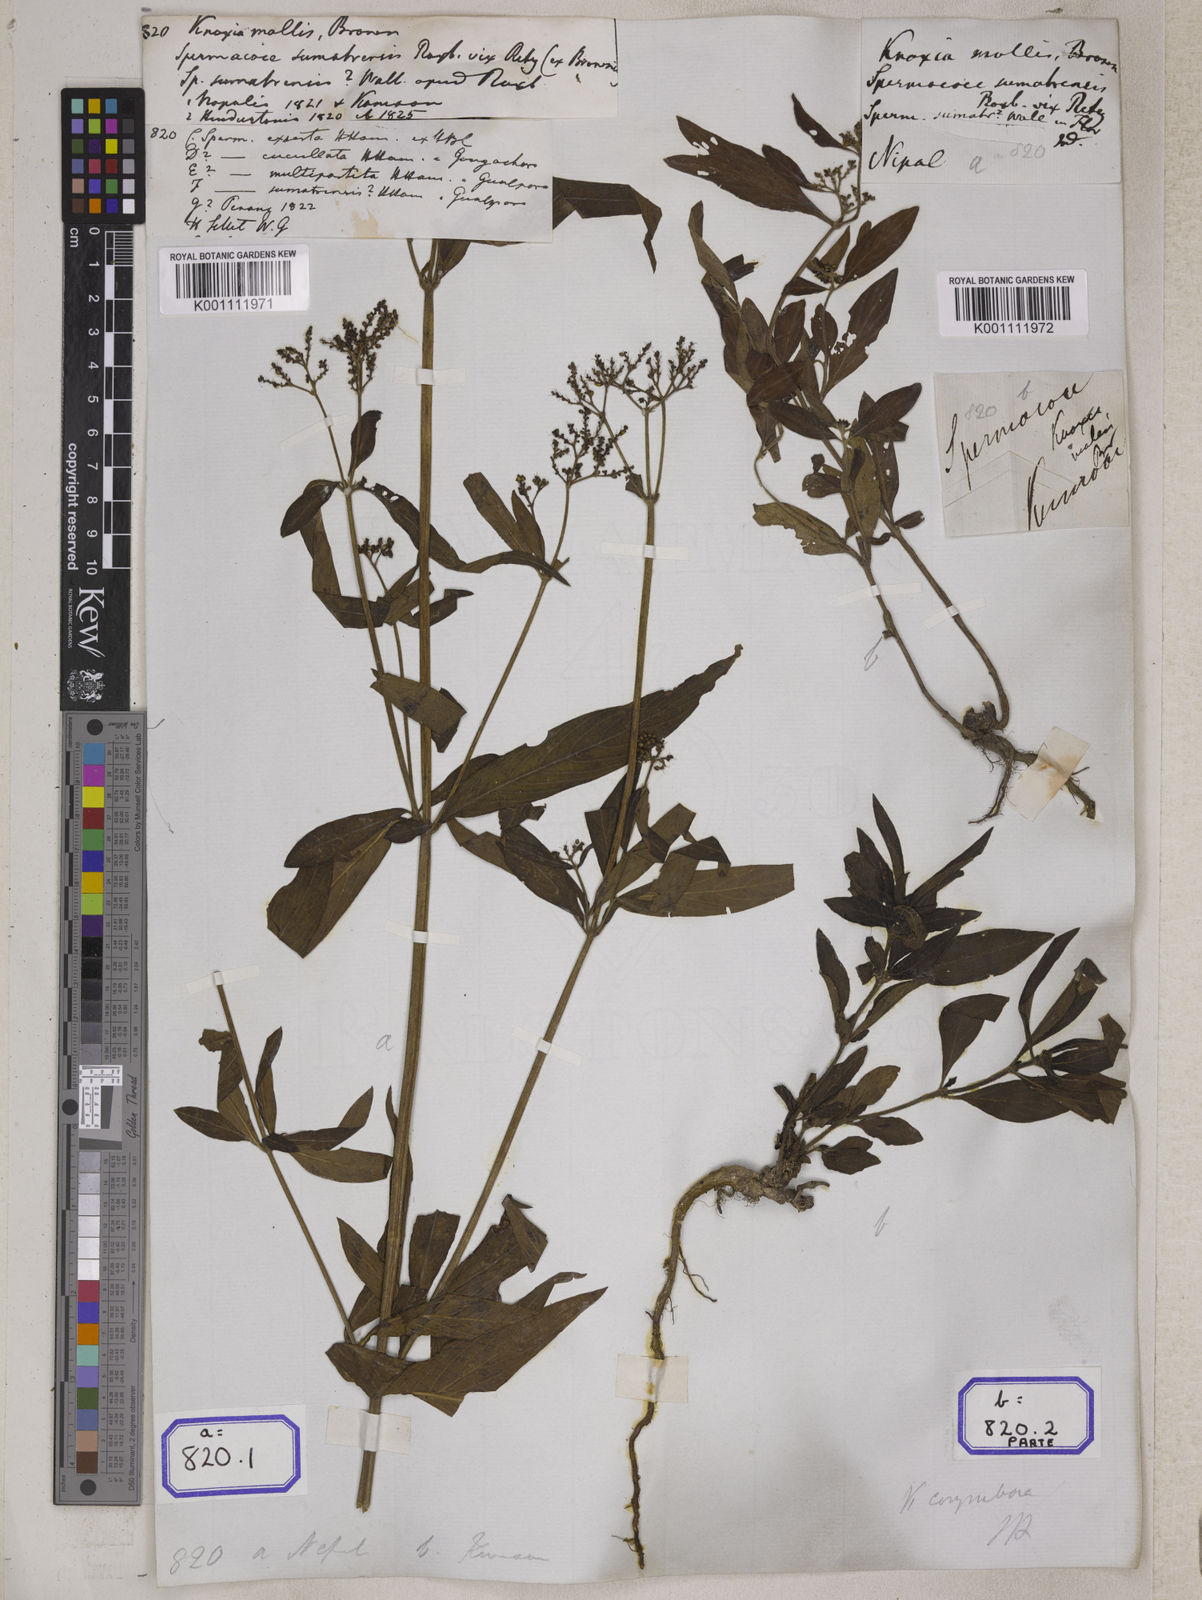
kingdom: Plantae
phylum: Tracheophyta
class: Magnoliopsida
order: Gentianales
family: Rubiaceae
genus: Knoxia
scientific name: Knoxia
